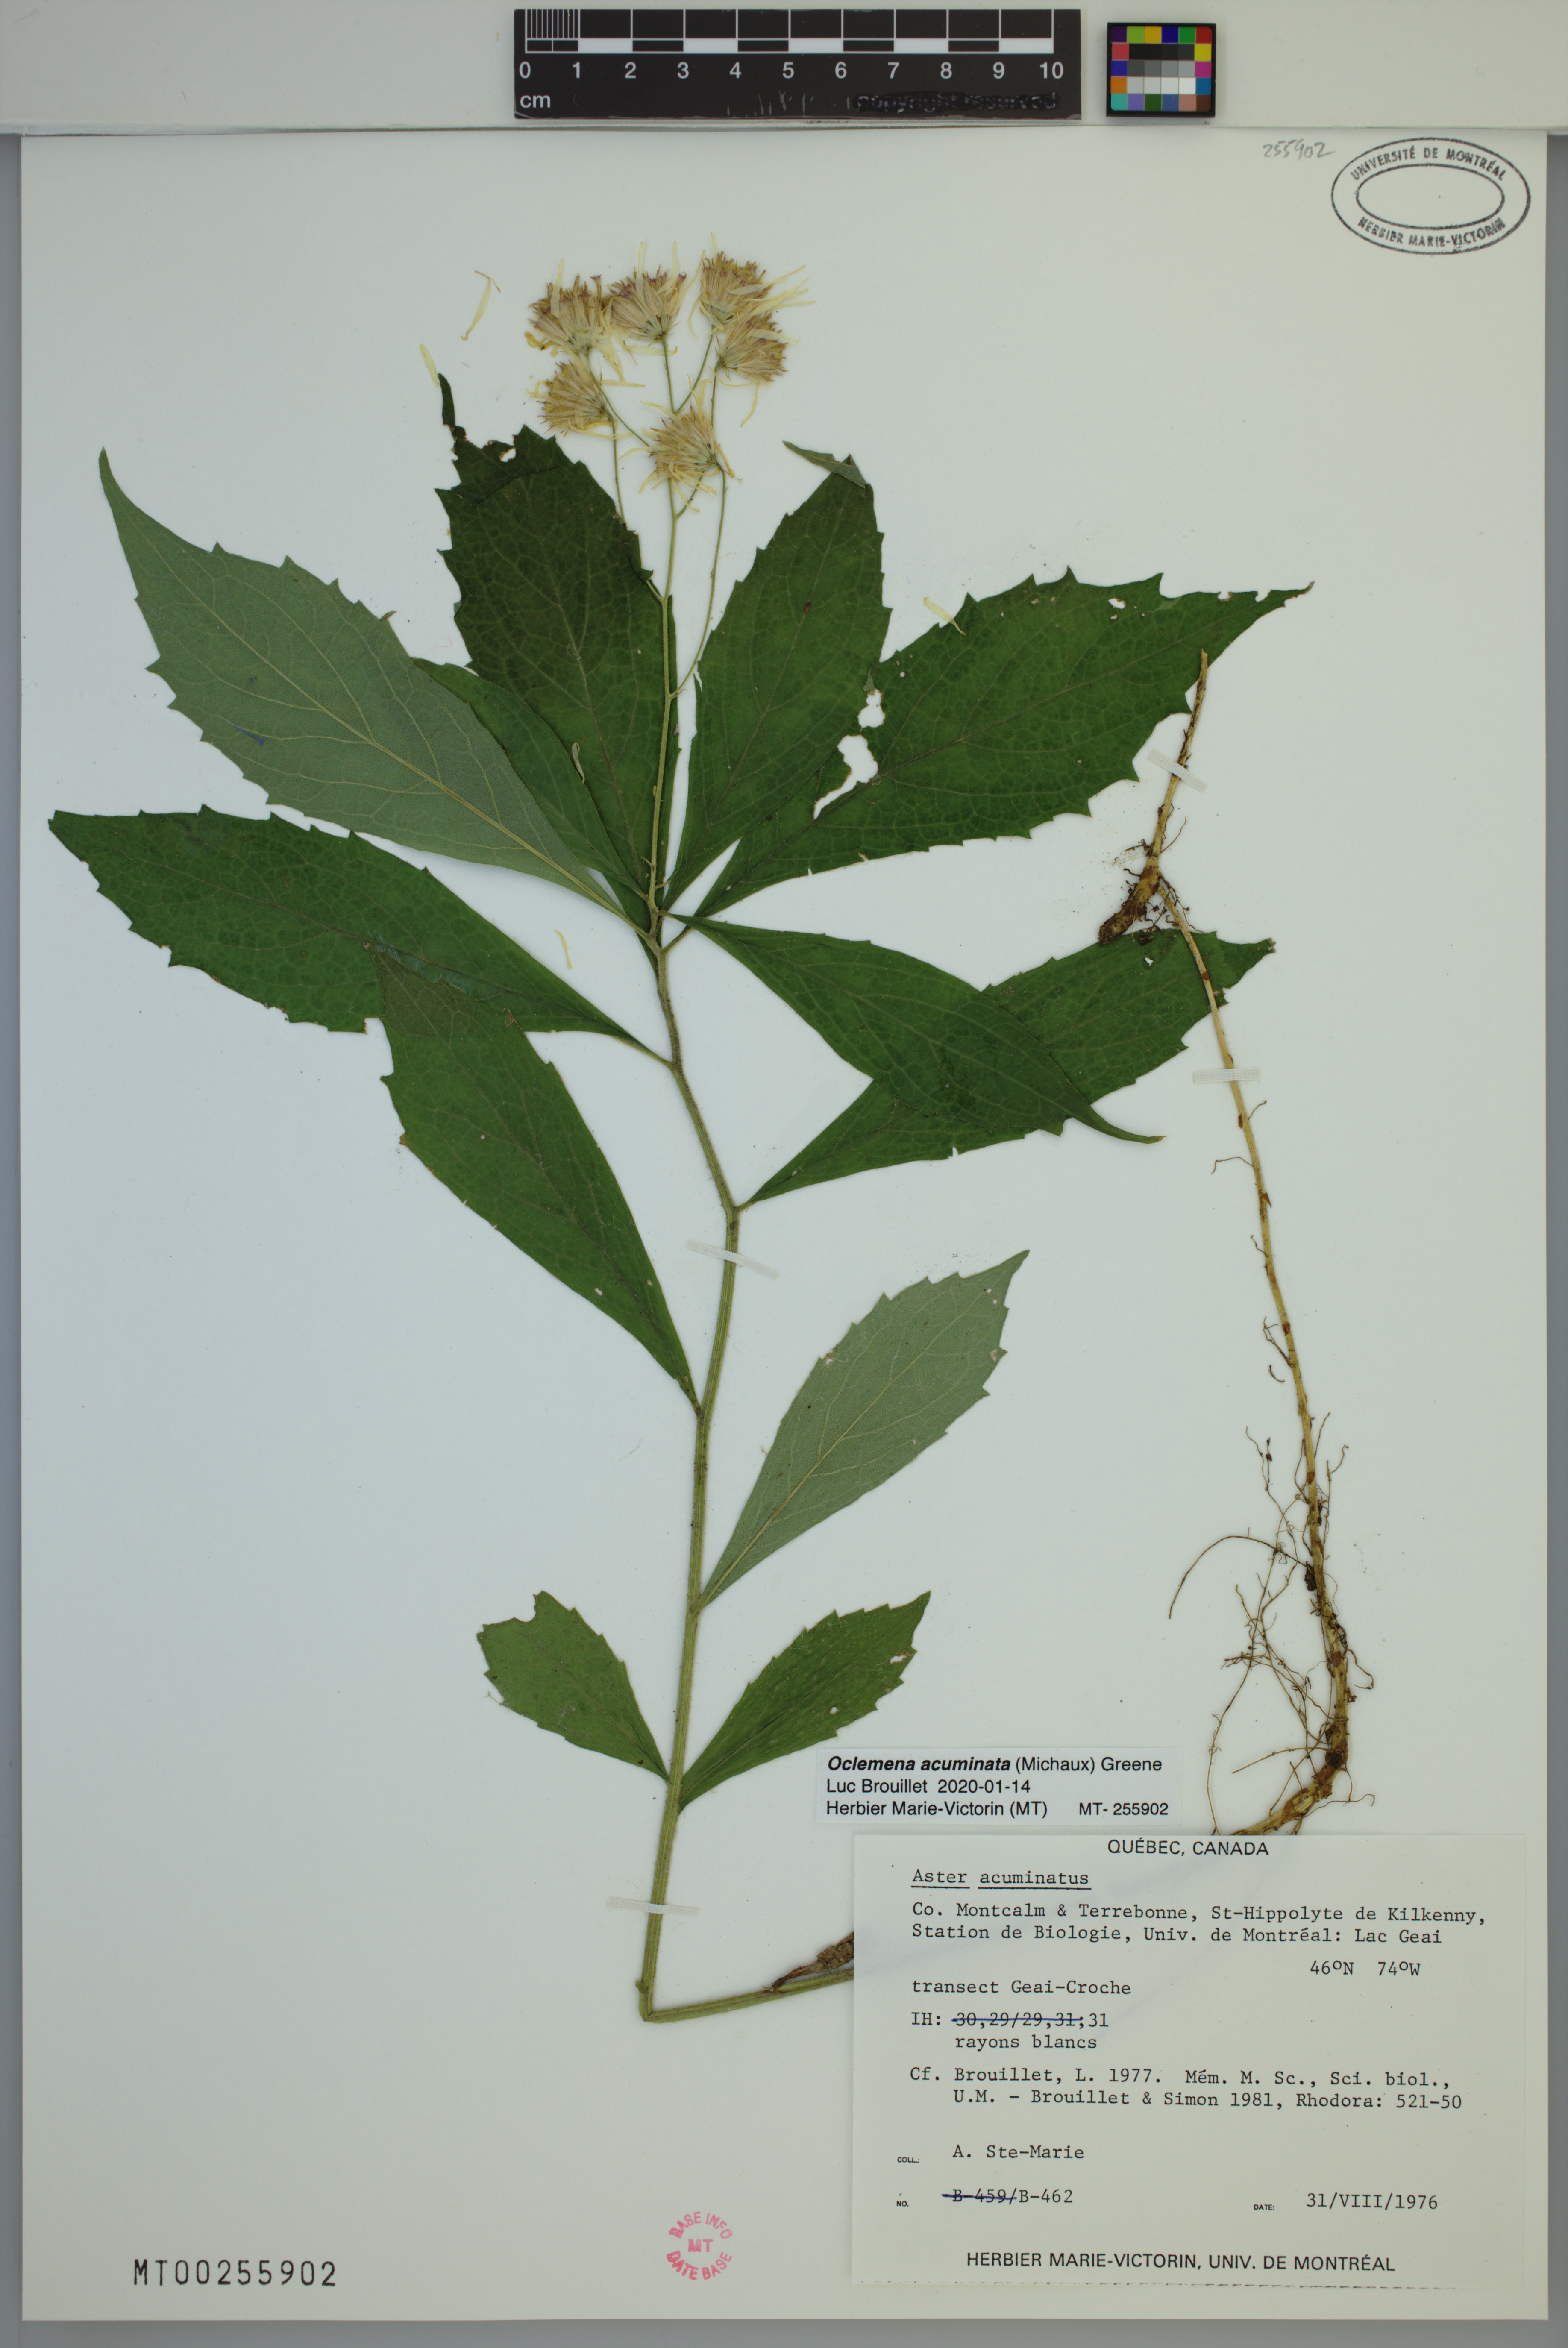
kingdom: Plantae
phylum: Tracheophyta
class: Magnoliopsida
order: Asterales
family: Asteraceae
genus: Oclemena
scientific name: Oclemena acuminata
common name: Mountain aster
